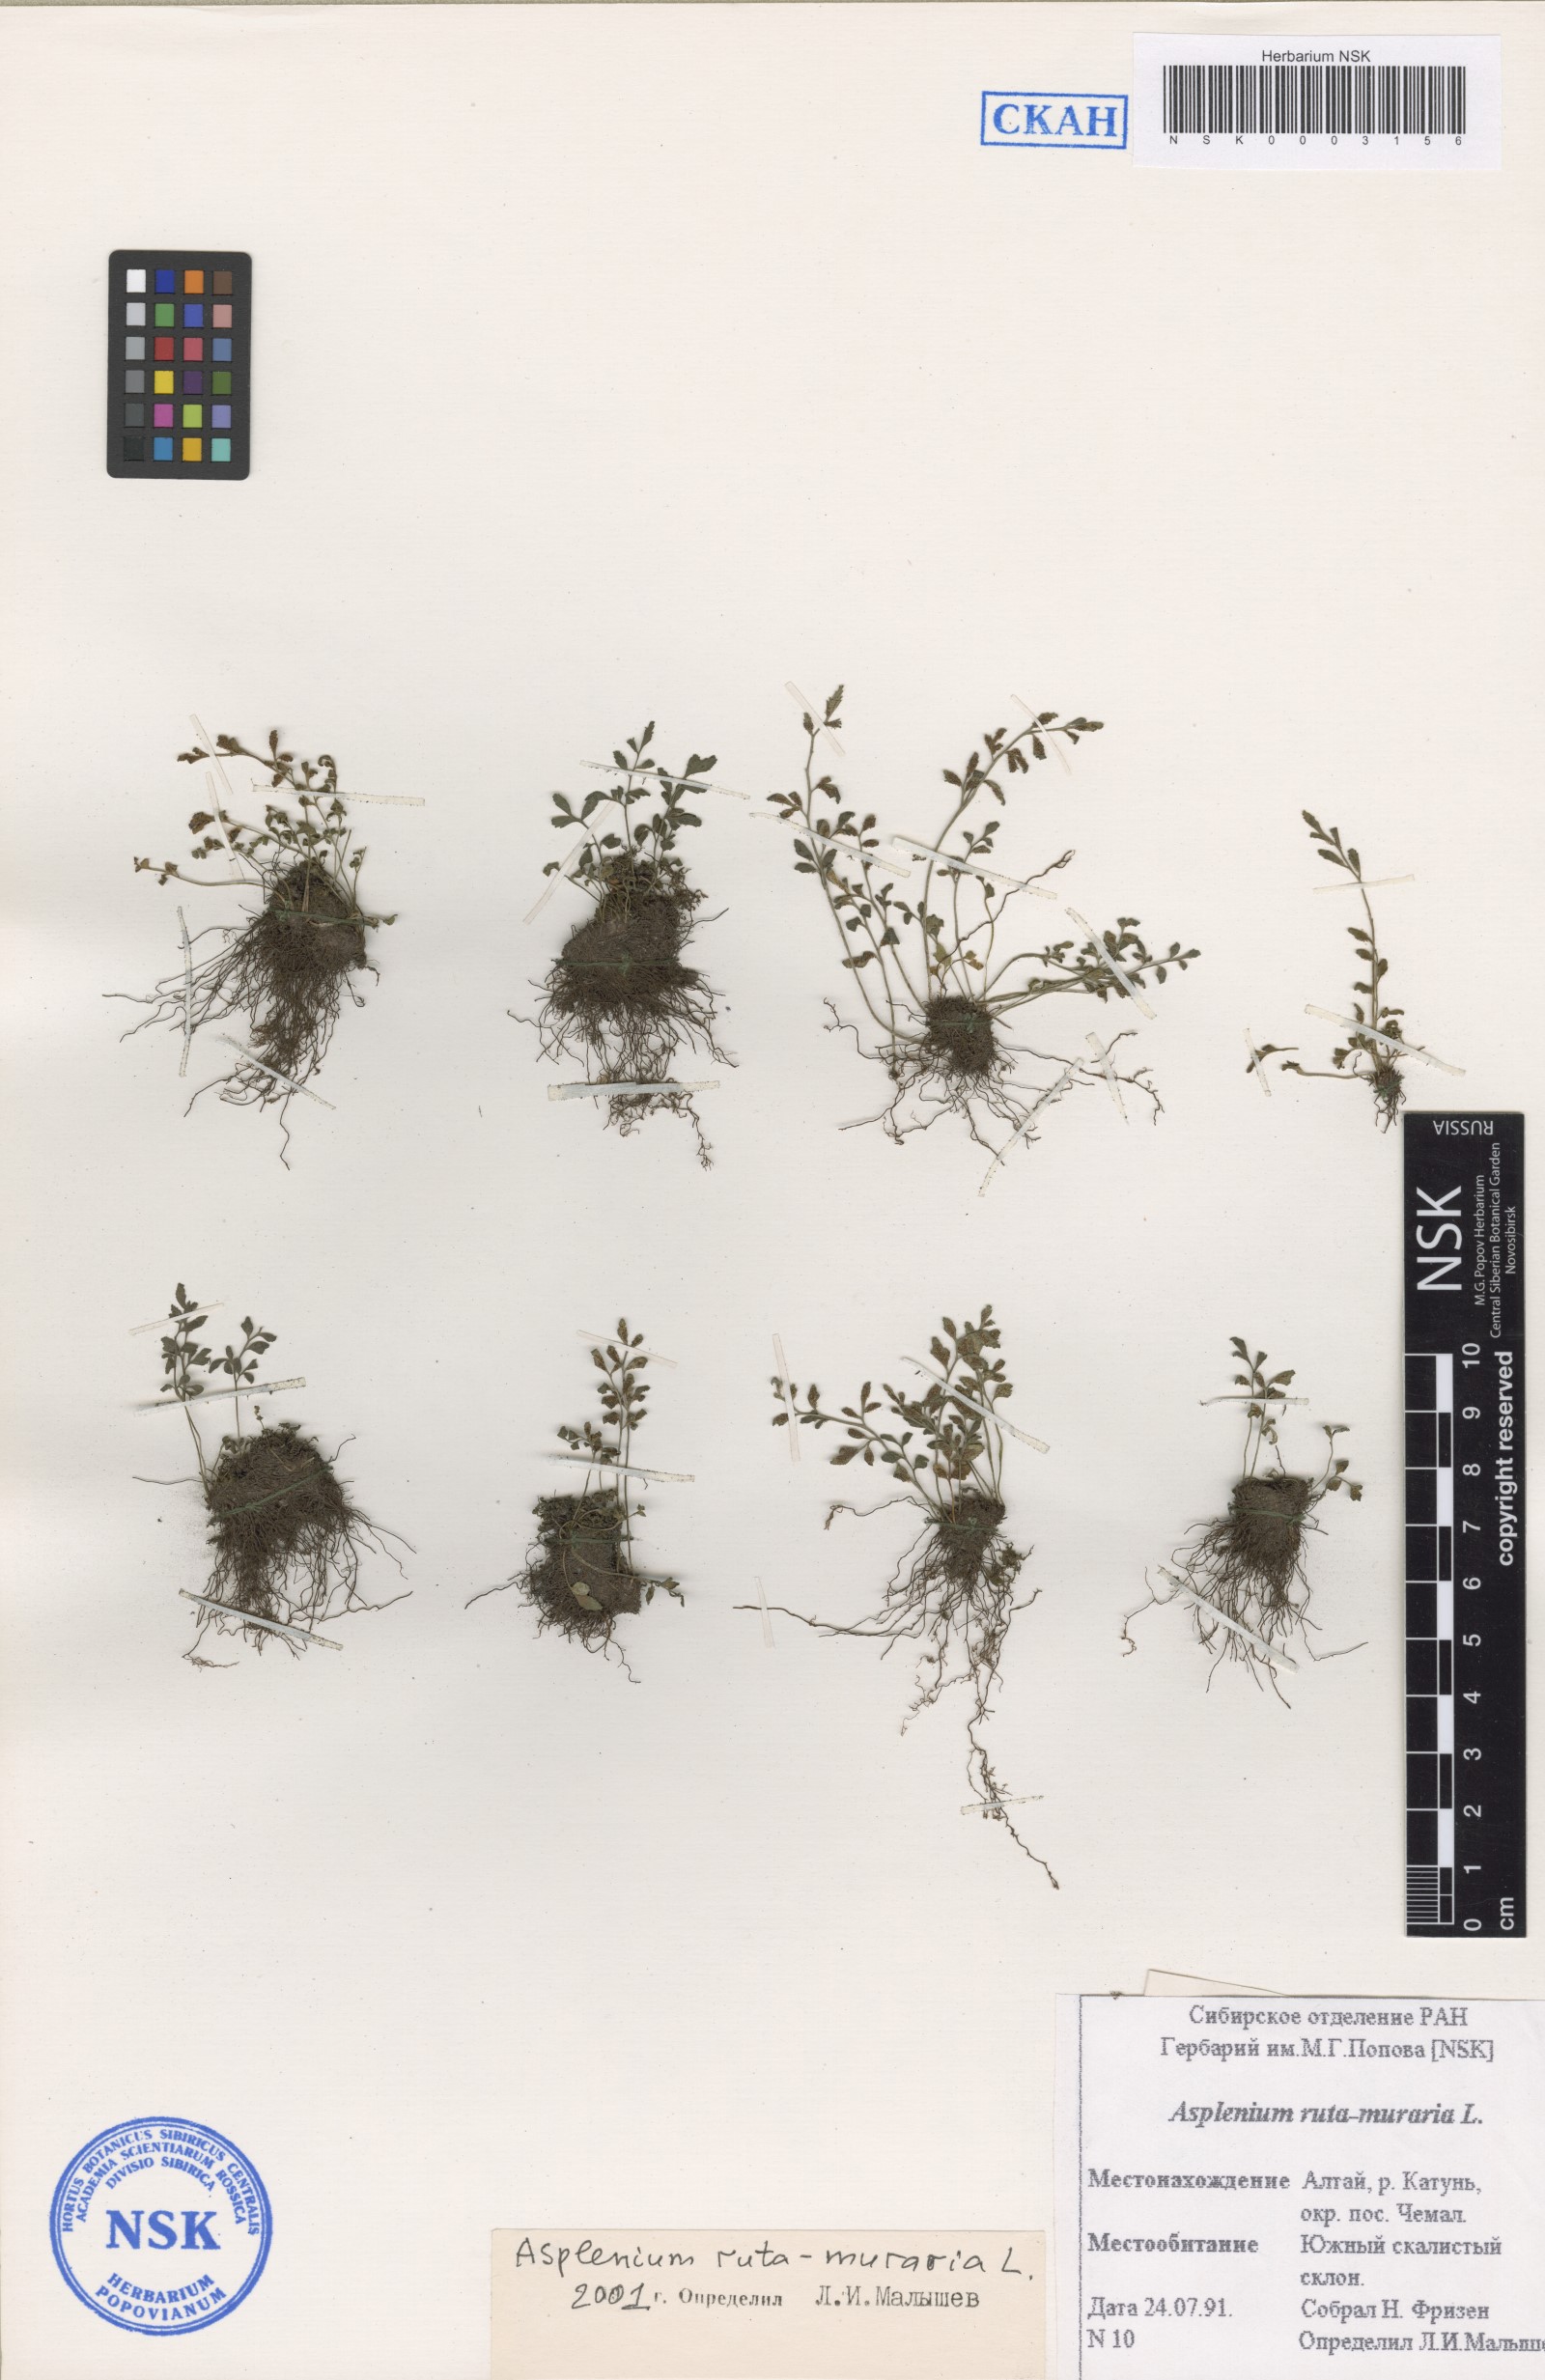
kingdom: Plantae
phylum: Tracheophyta
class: Polypodiopsida
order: Polypodiales
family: Aspleniaceae
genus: Asplenium
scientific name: Asplenium ruta-muraria
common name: Wall-rue
